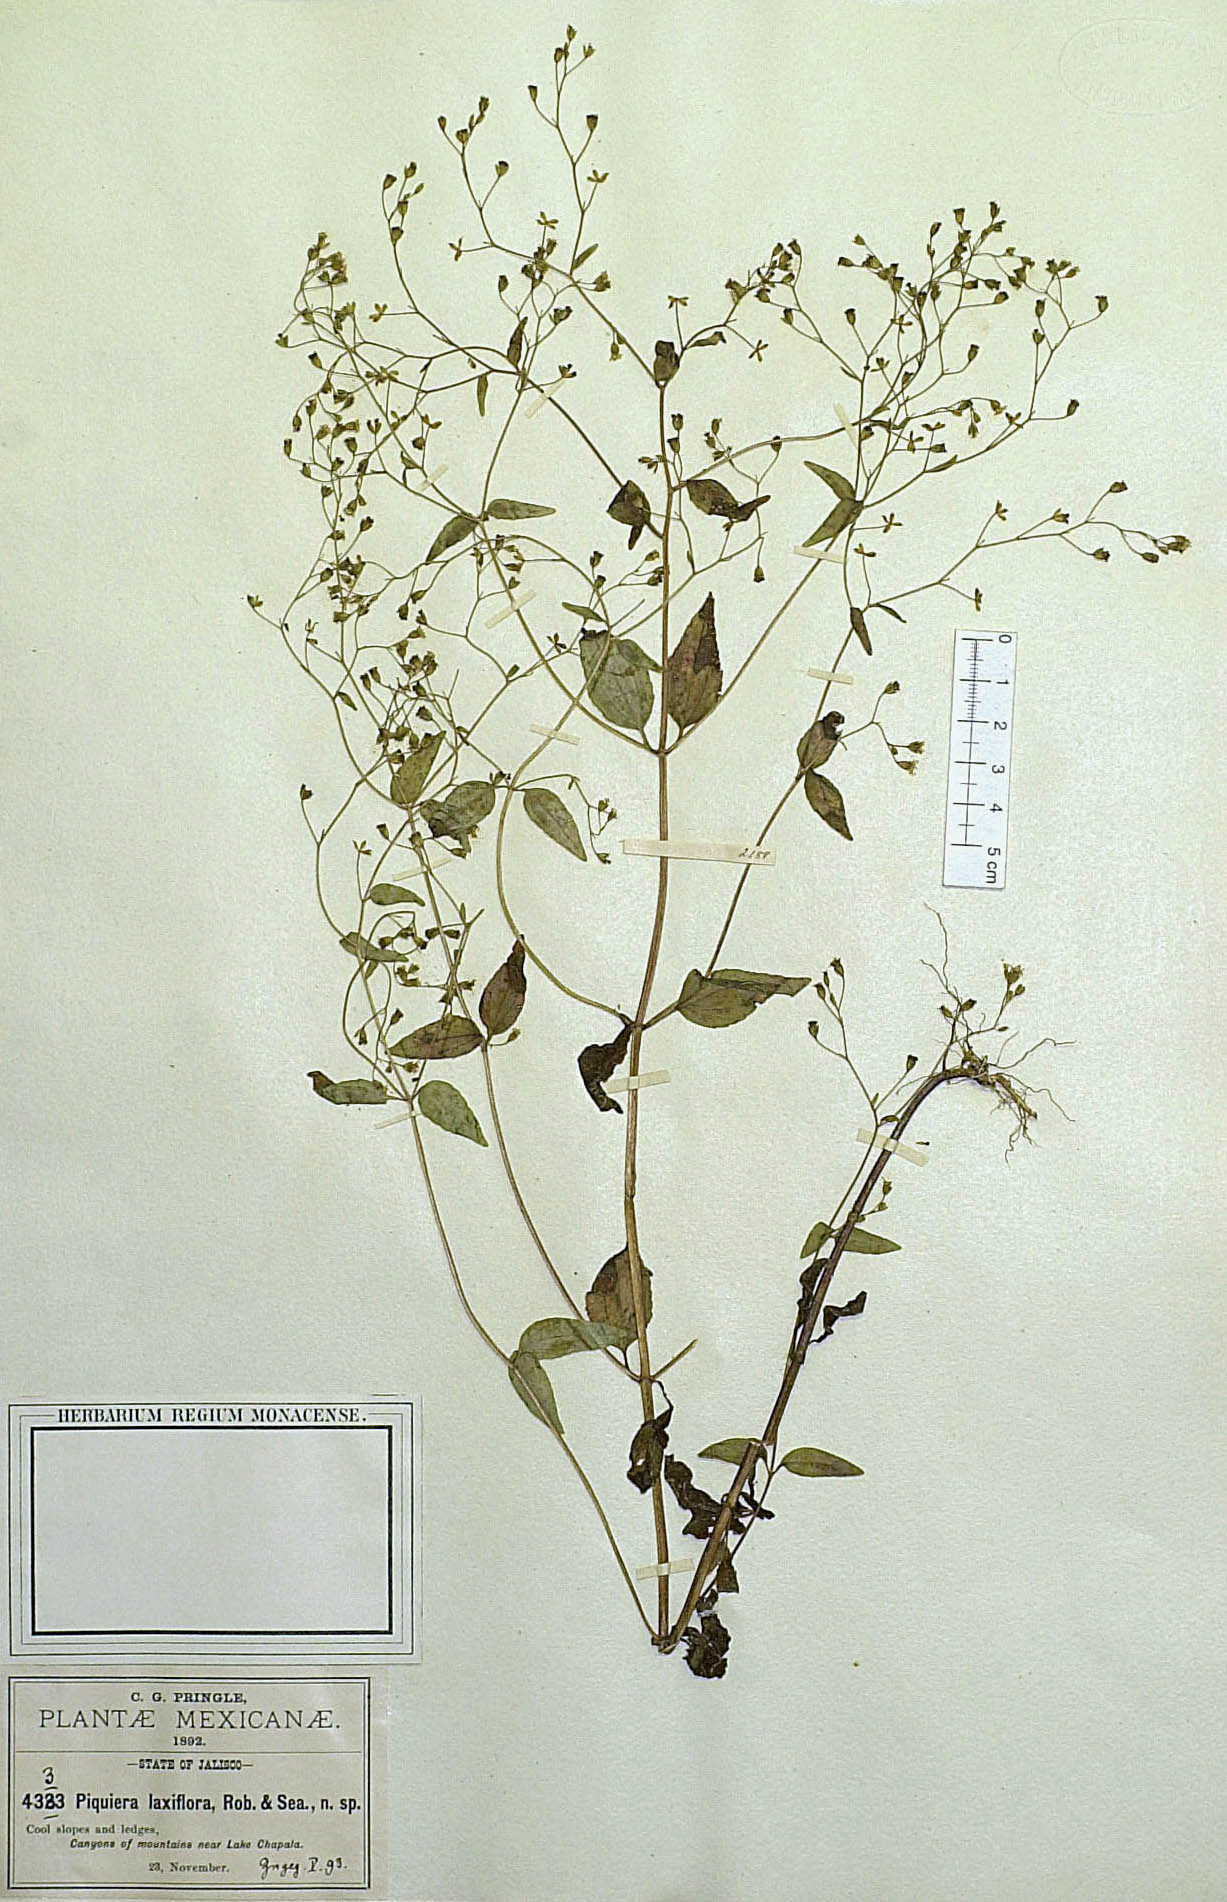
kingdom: Plantae
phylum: Tracheophyta
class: Magnoliopsida
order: Asterales
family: Asteraceae
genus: Piqueria
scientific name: Piqueria laxiflora
